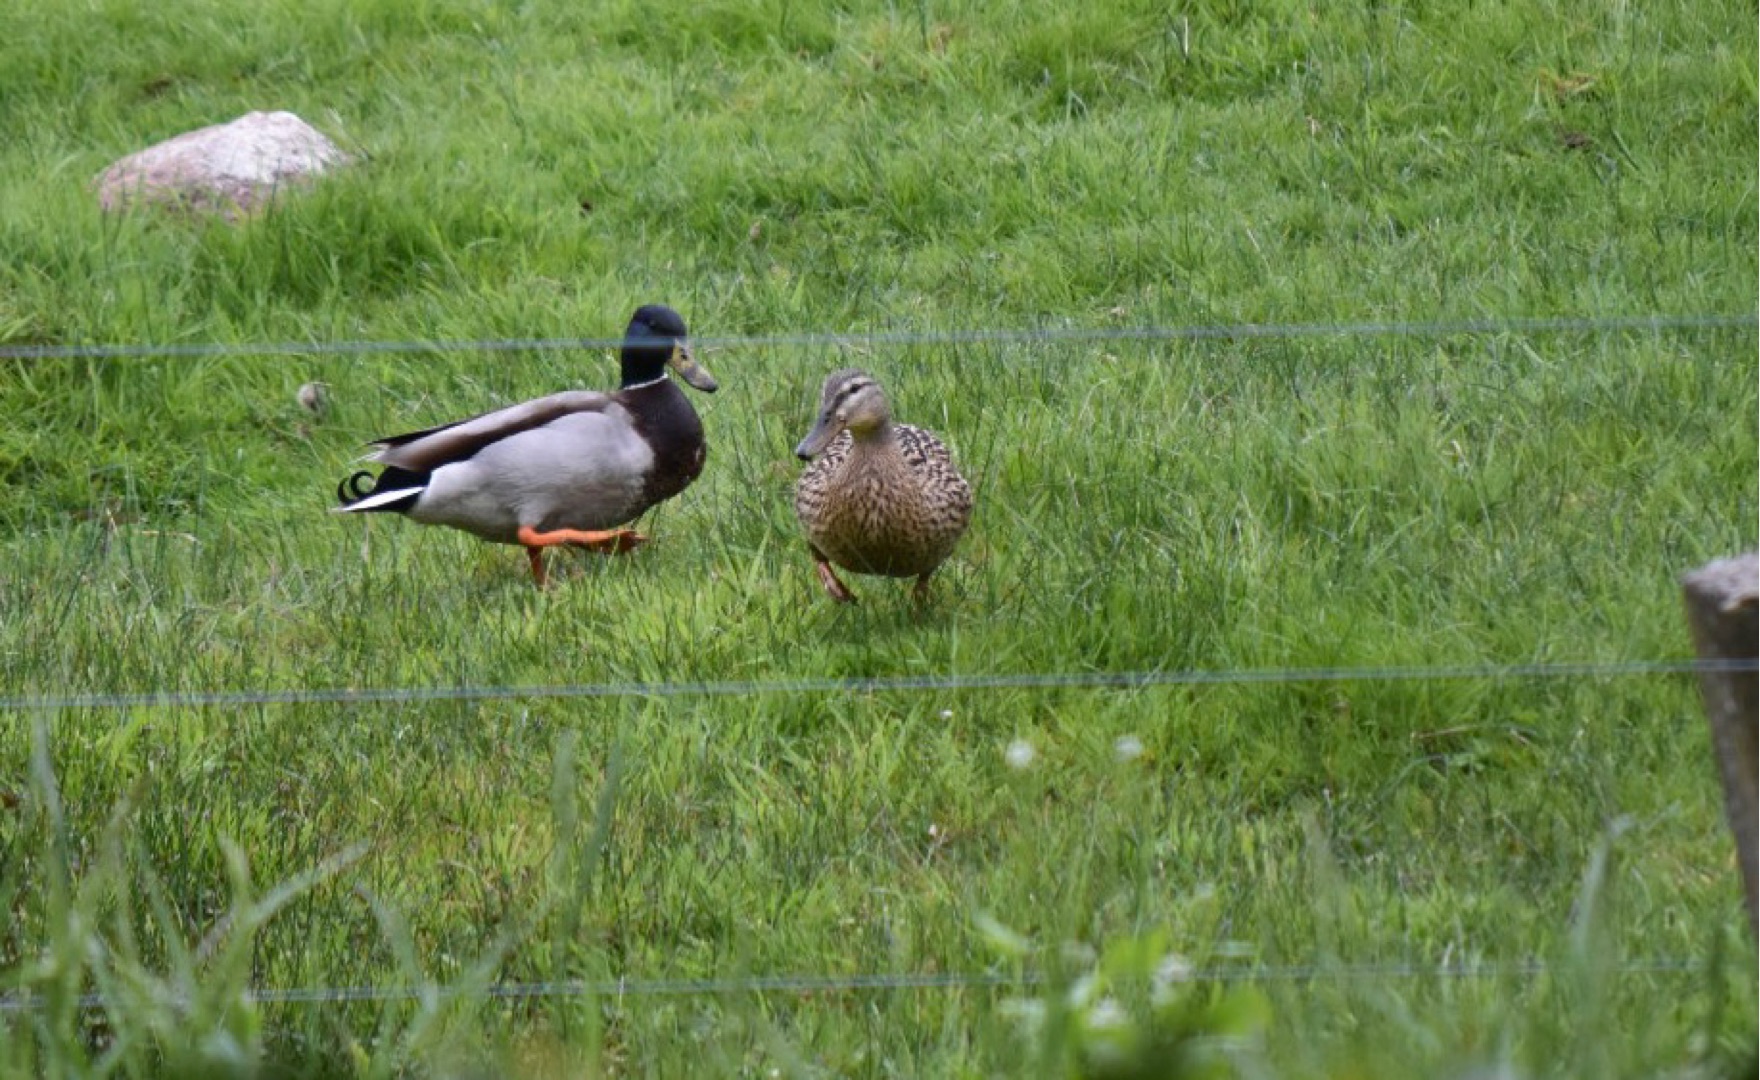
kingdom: Animalia
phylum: Chordata
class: Aves
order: Anseriformes
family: Anatidae
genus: Anas
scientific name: Anas platyrhynchos
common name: Gråand
